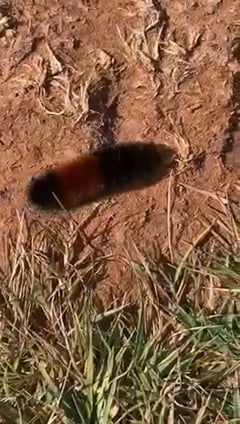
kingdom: Animalia
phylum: Arthropoda
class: Insecta
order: Lepidoptera
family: Erebidae
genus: Pyrrharctia
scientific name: Pyrrharctia isabella
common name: Isabella tiger moth
